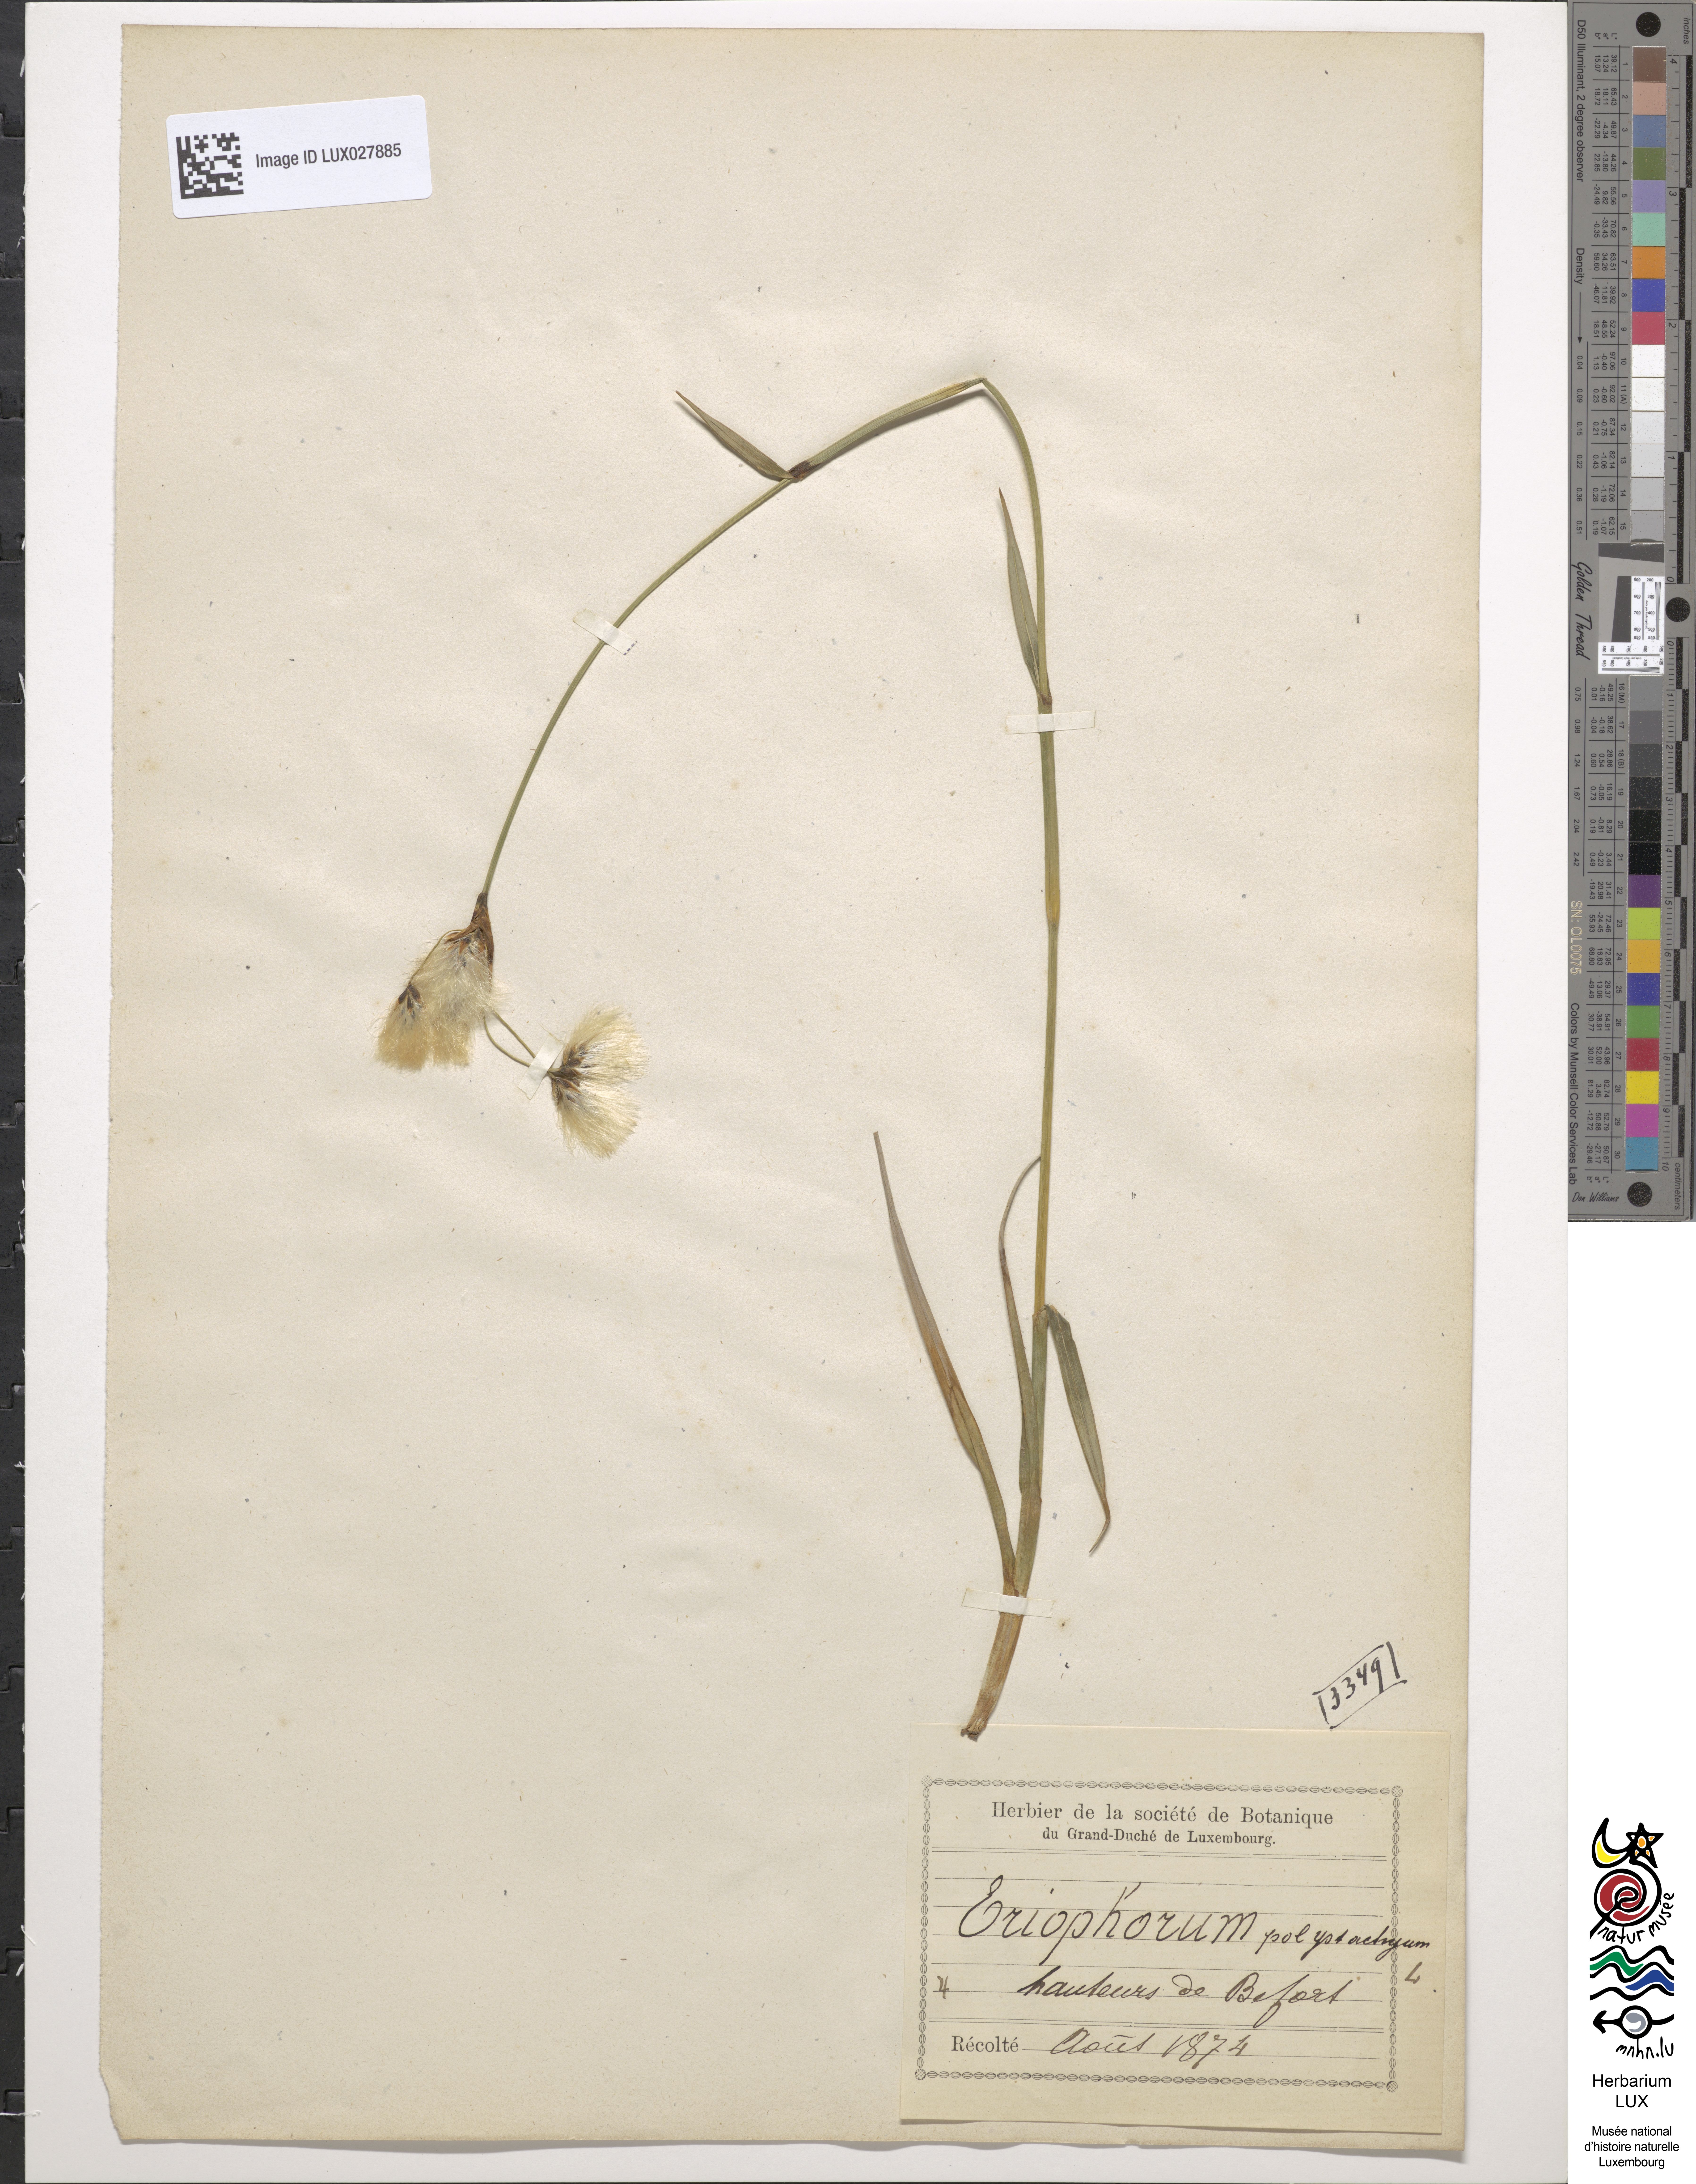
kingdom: Plantae
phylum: Tracheophyta
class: Liliopsida
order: Poales
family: Cyperaceae
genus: Eriophorum
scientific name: Eriophorum angustifolium
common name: Common cottongrass
